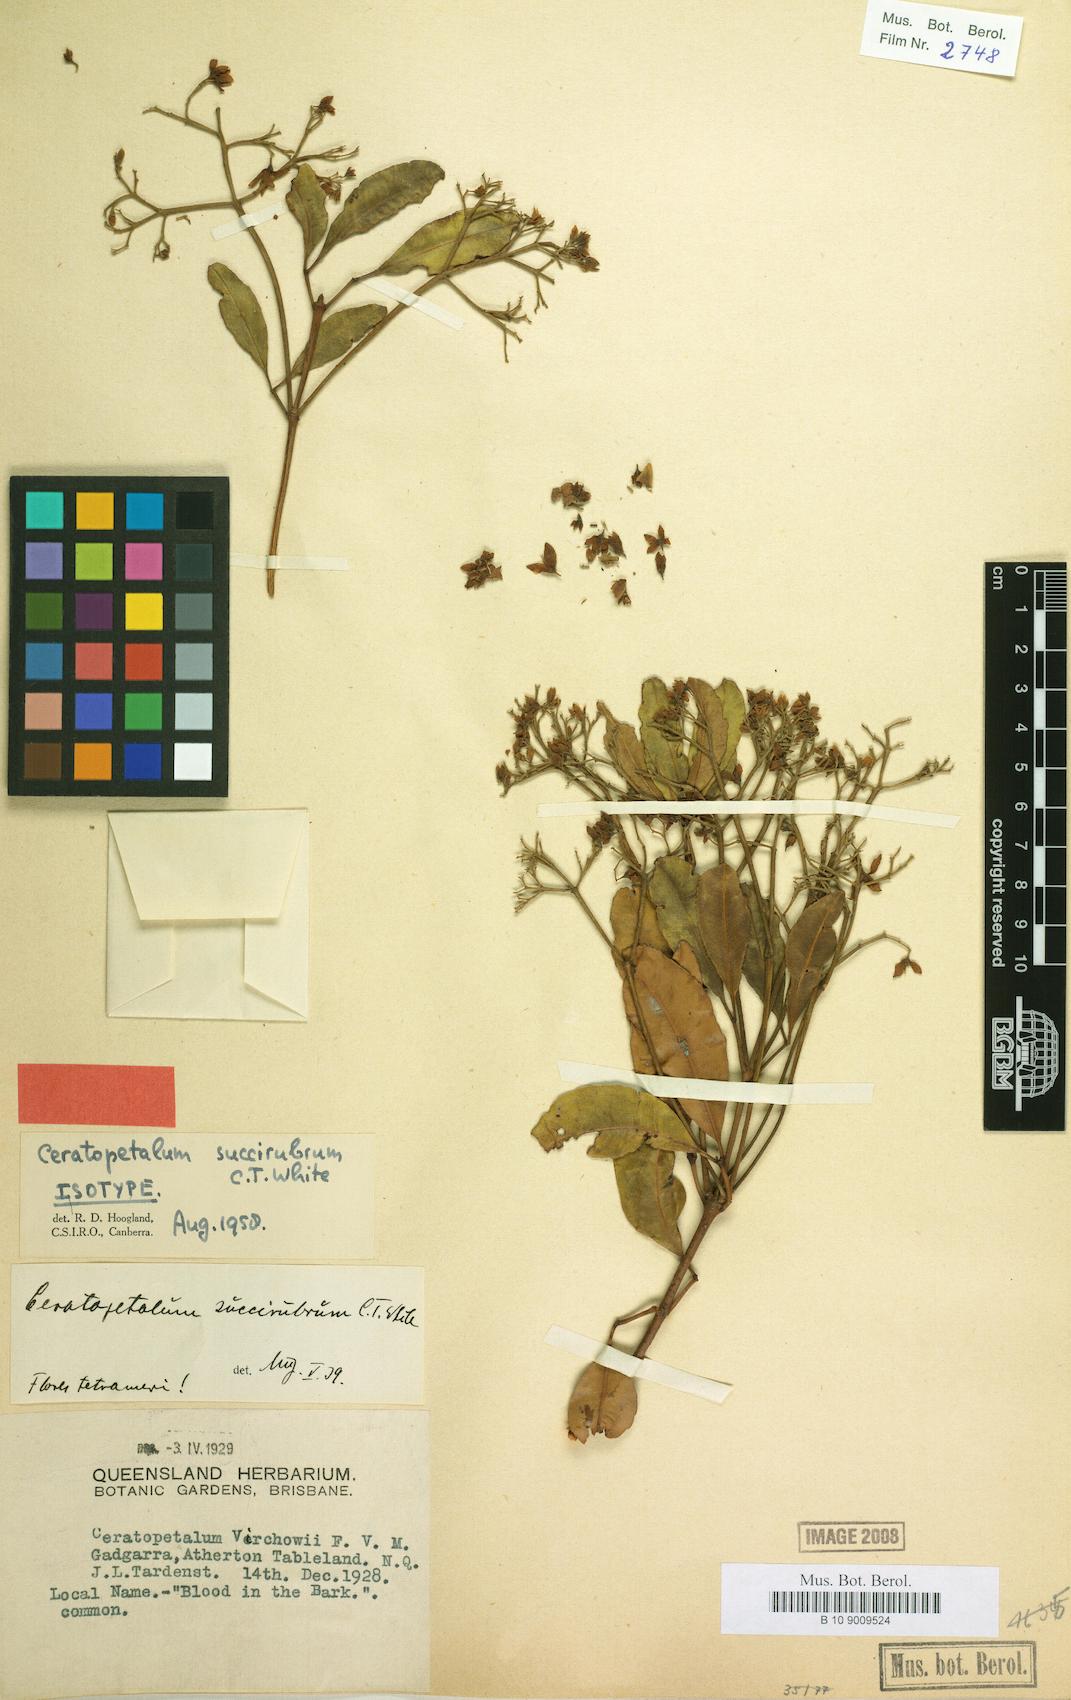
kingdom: Plantae
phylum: Tracheophyta
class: Magnoliopsida
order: Oxalidales
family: Cunoniaceae
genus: Ceratopetalum
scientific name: Ceratopetalum tetrapterum
